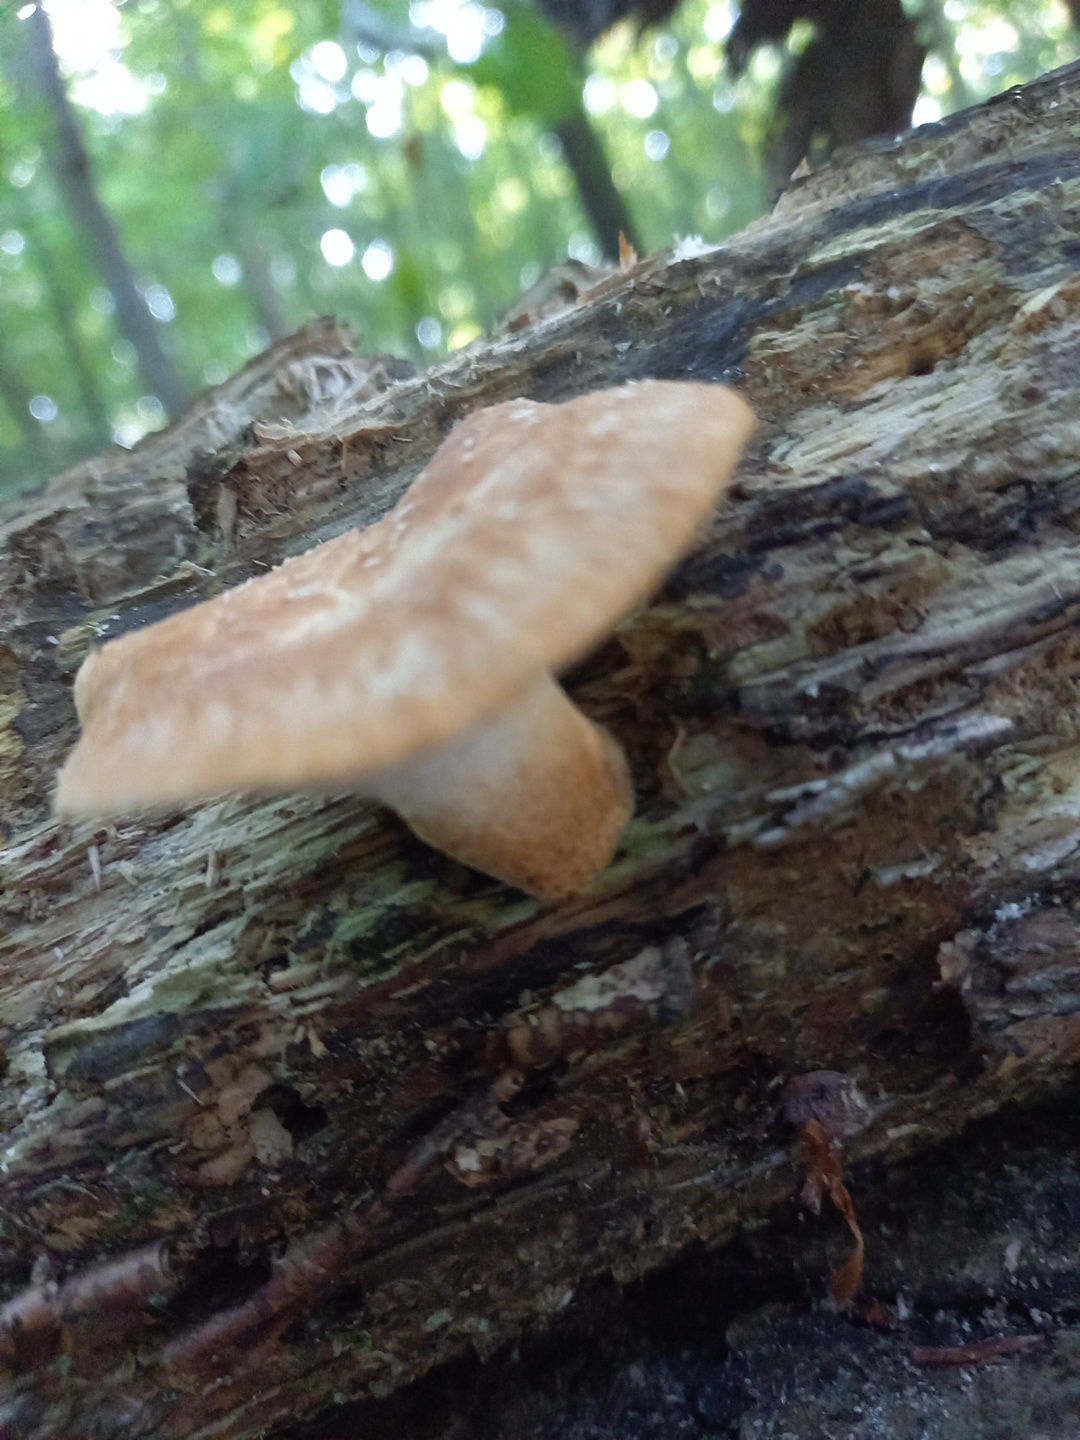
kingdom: Fungi
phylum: Basidiomycota
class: Agaricomycetes
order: Polyporales
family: Polyporaceae
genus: Polyporus
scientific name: Polyporus tuberaster
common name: knoldet stilkporesvamp
